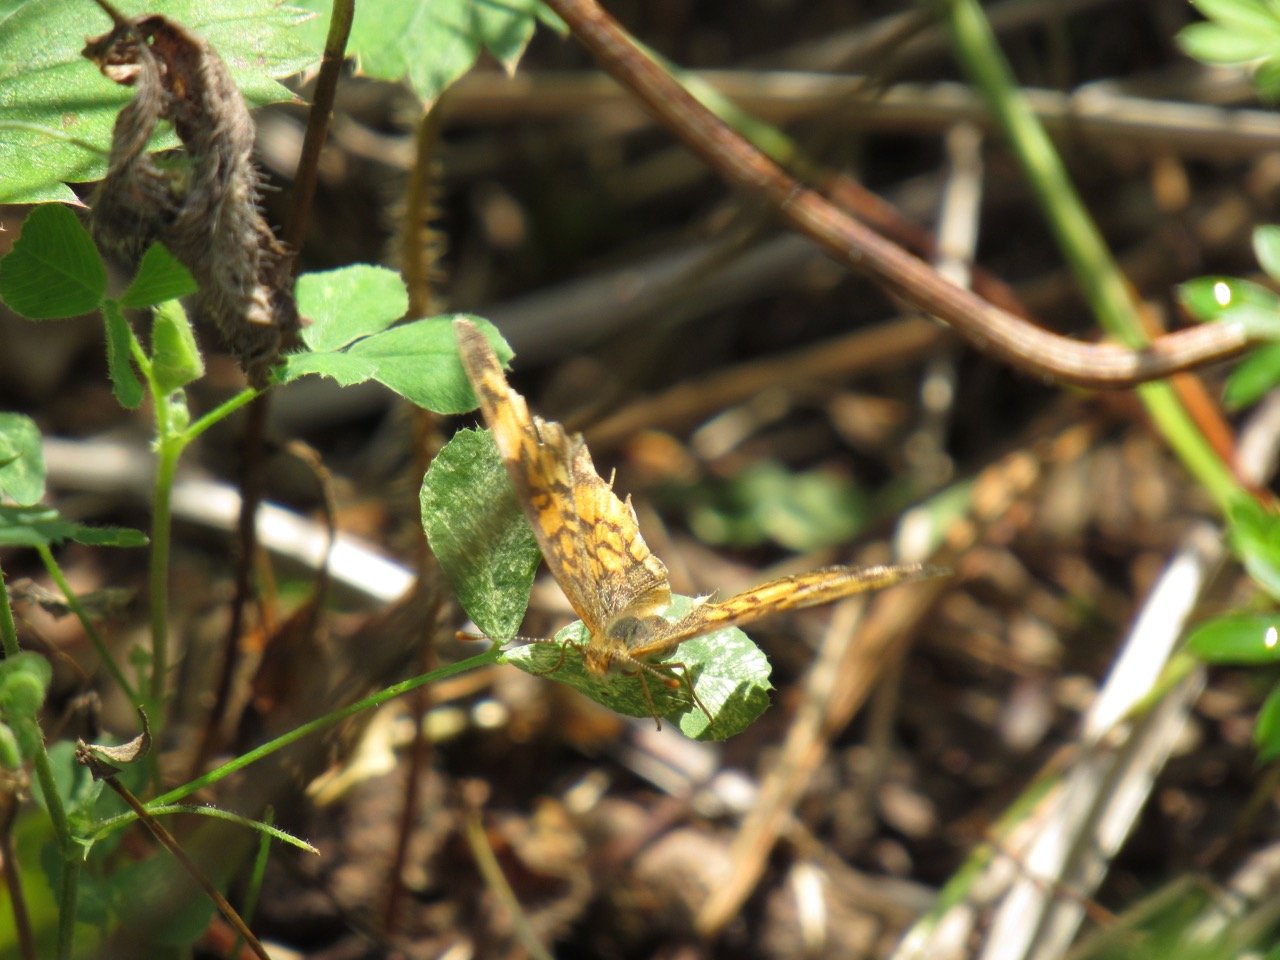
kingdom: Animalia
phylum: Arthropoda
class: Insecta
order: Lepidoptera
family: Nymphalidae
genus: Phyciodes
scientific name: Phyciodes tharos
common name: Pearl Crescent
